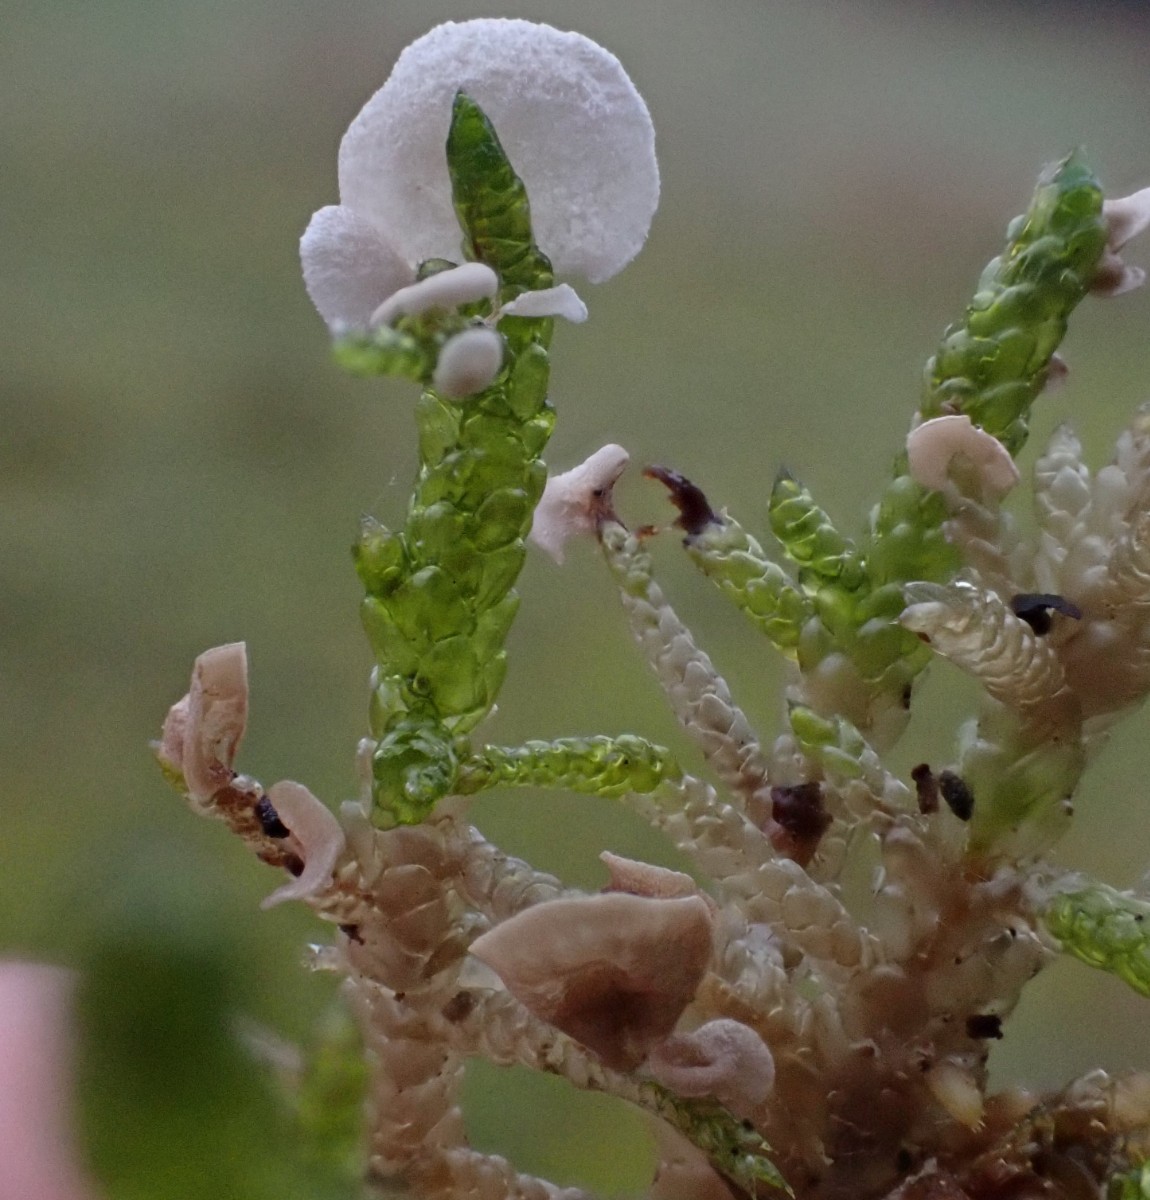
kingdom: Fungi
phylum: Basidiomycota
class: Agaricomycetes
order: Agaricales
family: Hygrophoraceae
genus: Arrhenia
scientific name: Arrhenia retiruga
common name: lille fontænehat
